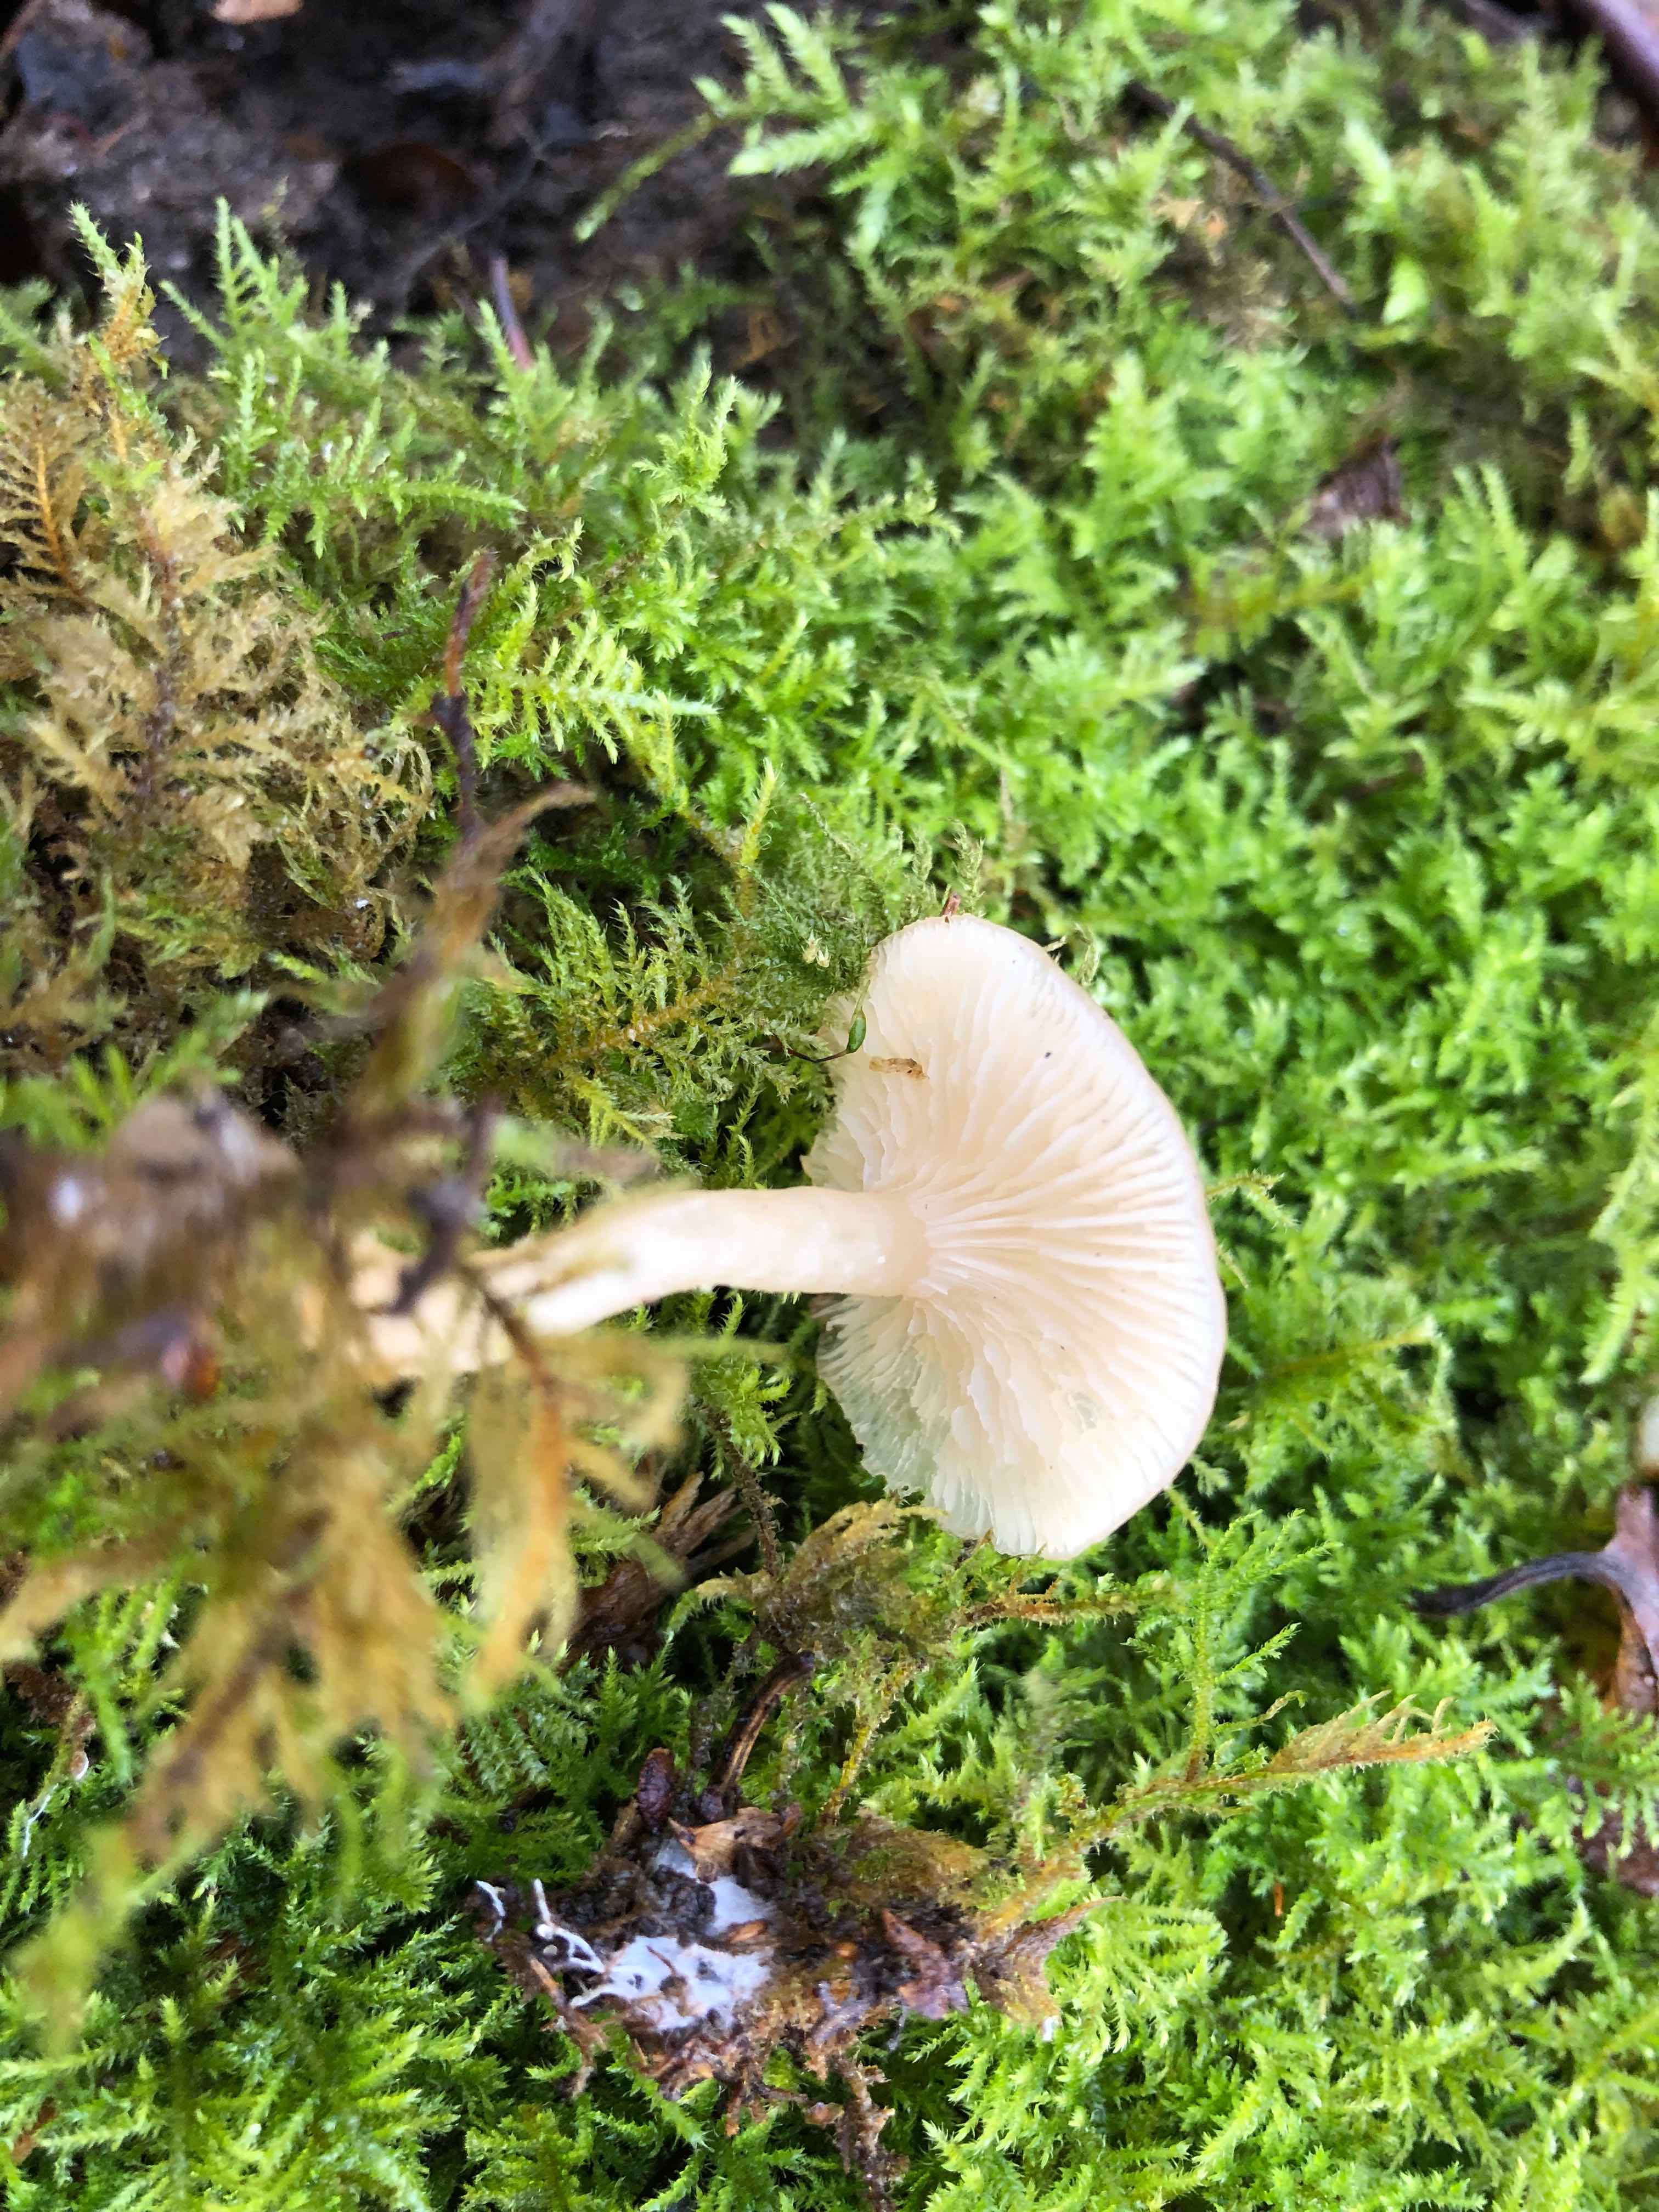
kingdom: Fungi
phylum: Basidiomycota
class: Agaricomycetes
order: Agaricales
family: Tricholomataceae
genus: Clitocybe
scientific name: Clitocybe fragrans
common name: vellugtende tragthat
